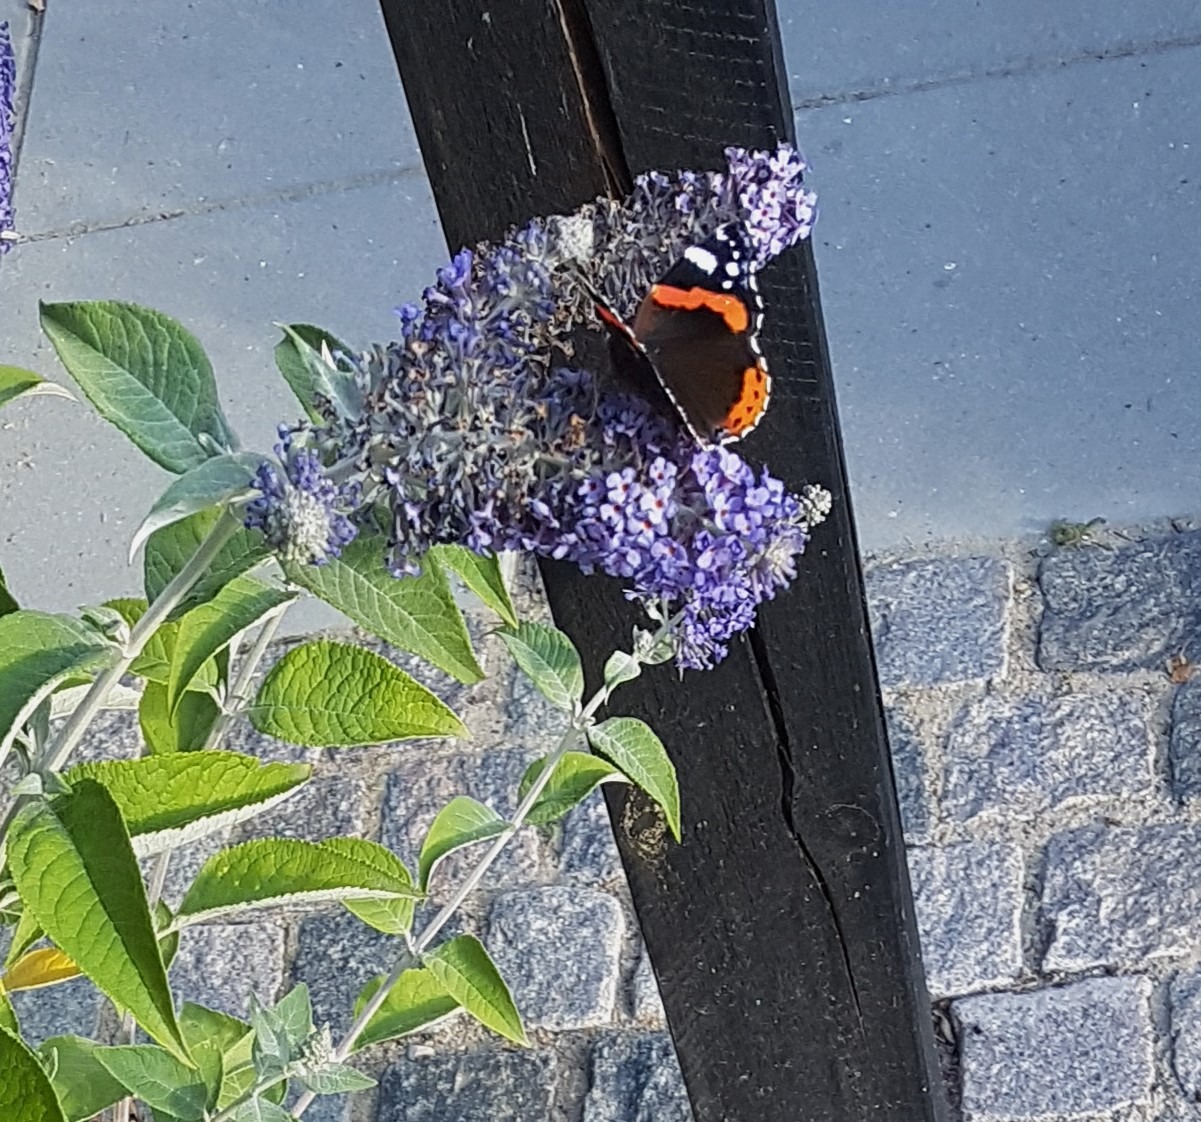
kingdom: Animalia
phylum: Arthropoda
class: Insecta
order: Lepidoptera
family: Nymphalidae
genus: Vanessa
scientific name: Vanessa atalanta
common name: Admiral
